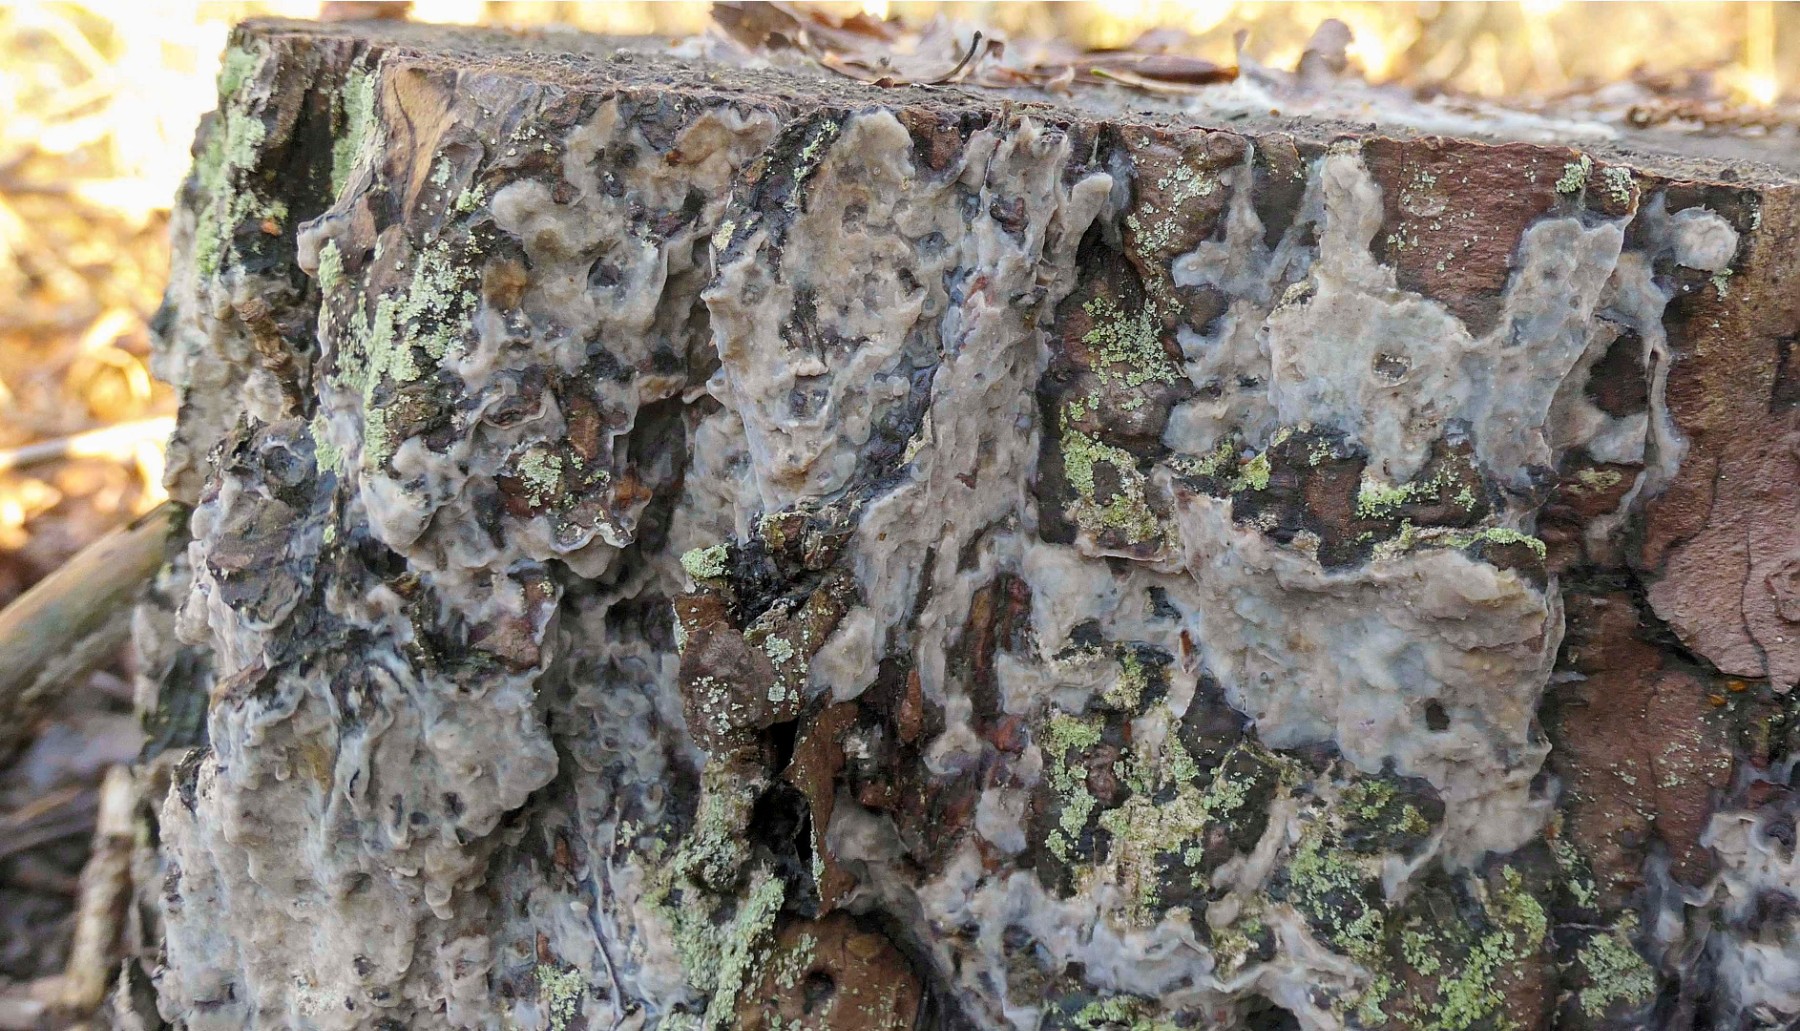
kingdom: Fungi
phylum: Basidiomycota
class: Agaricomycetes
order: Polyporales
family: Phanerochaetaceae
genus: Phlebiopsis
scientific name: Phlebiopsis gigantea
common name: kæmpebarksvamp
